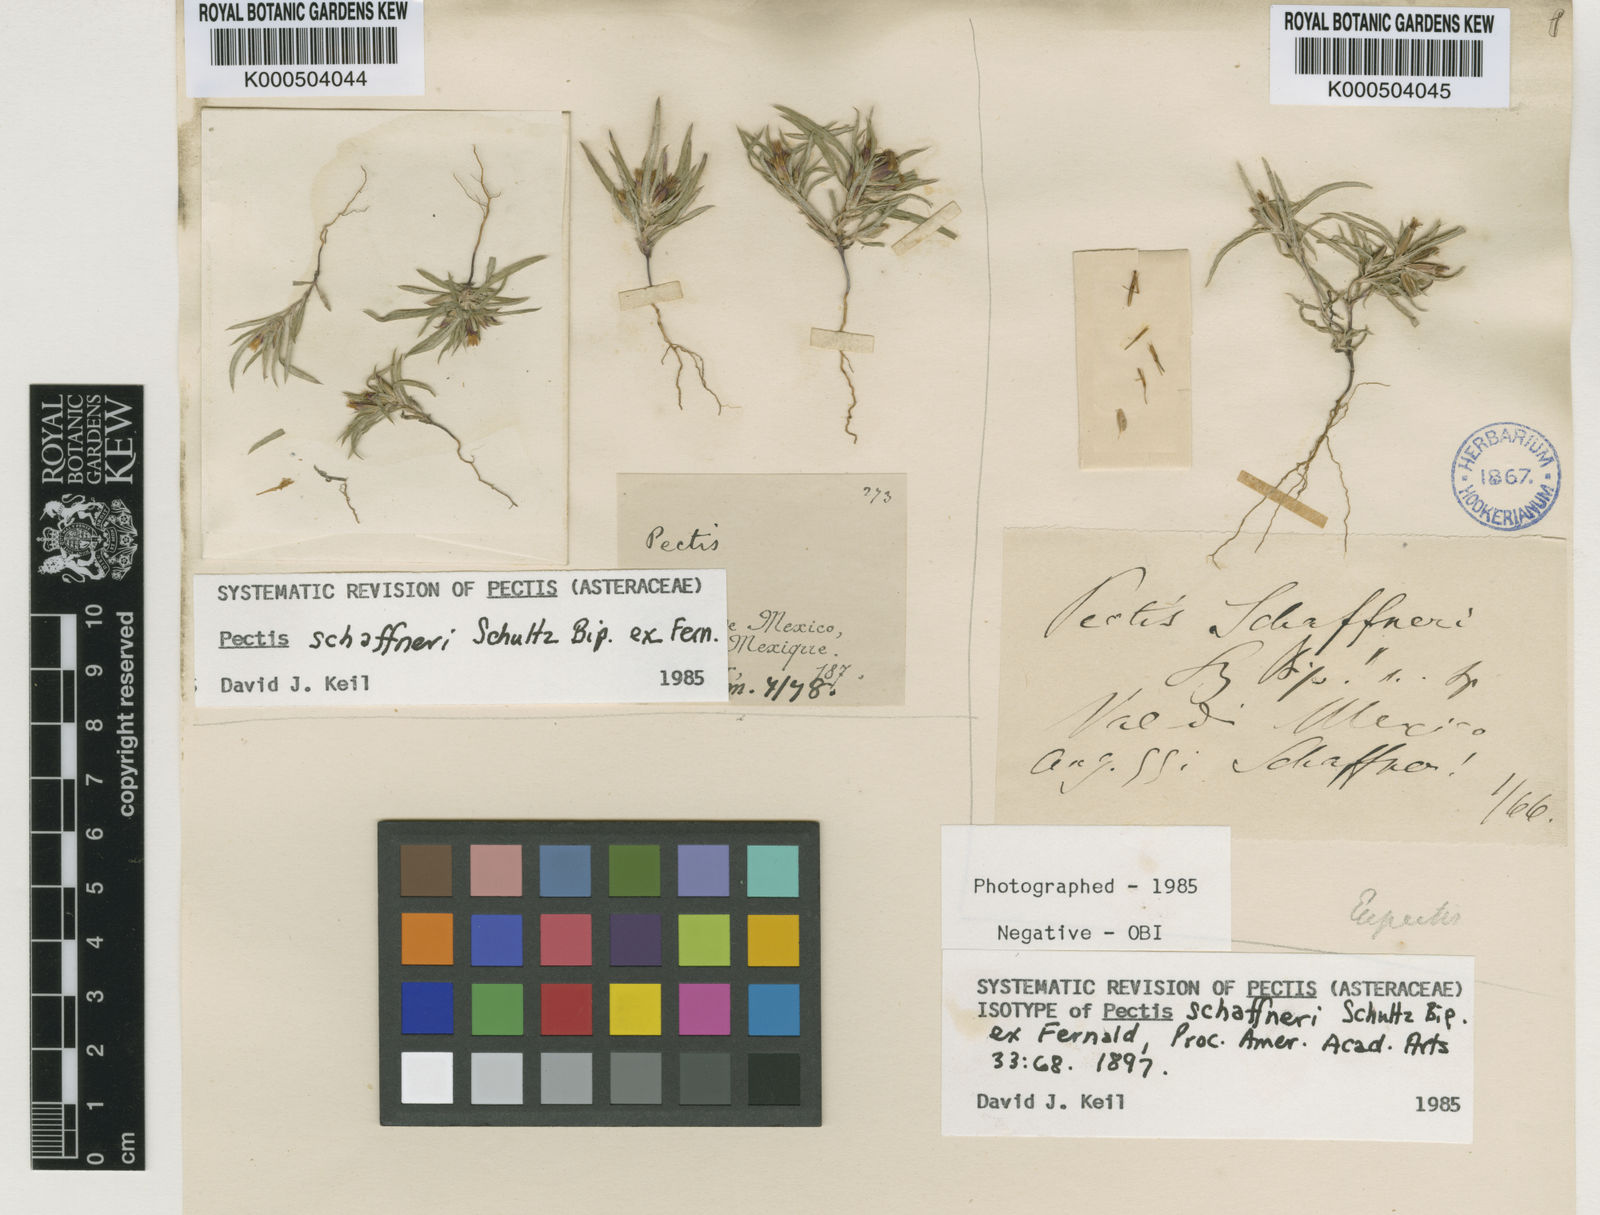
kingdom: Plantae
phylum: Tracheophyta
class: Magnoliopsida
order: Asterales
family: Asteraceae
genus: Pectis
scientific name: Pectis
